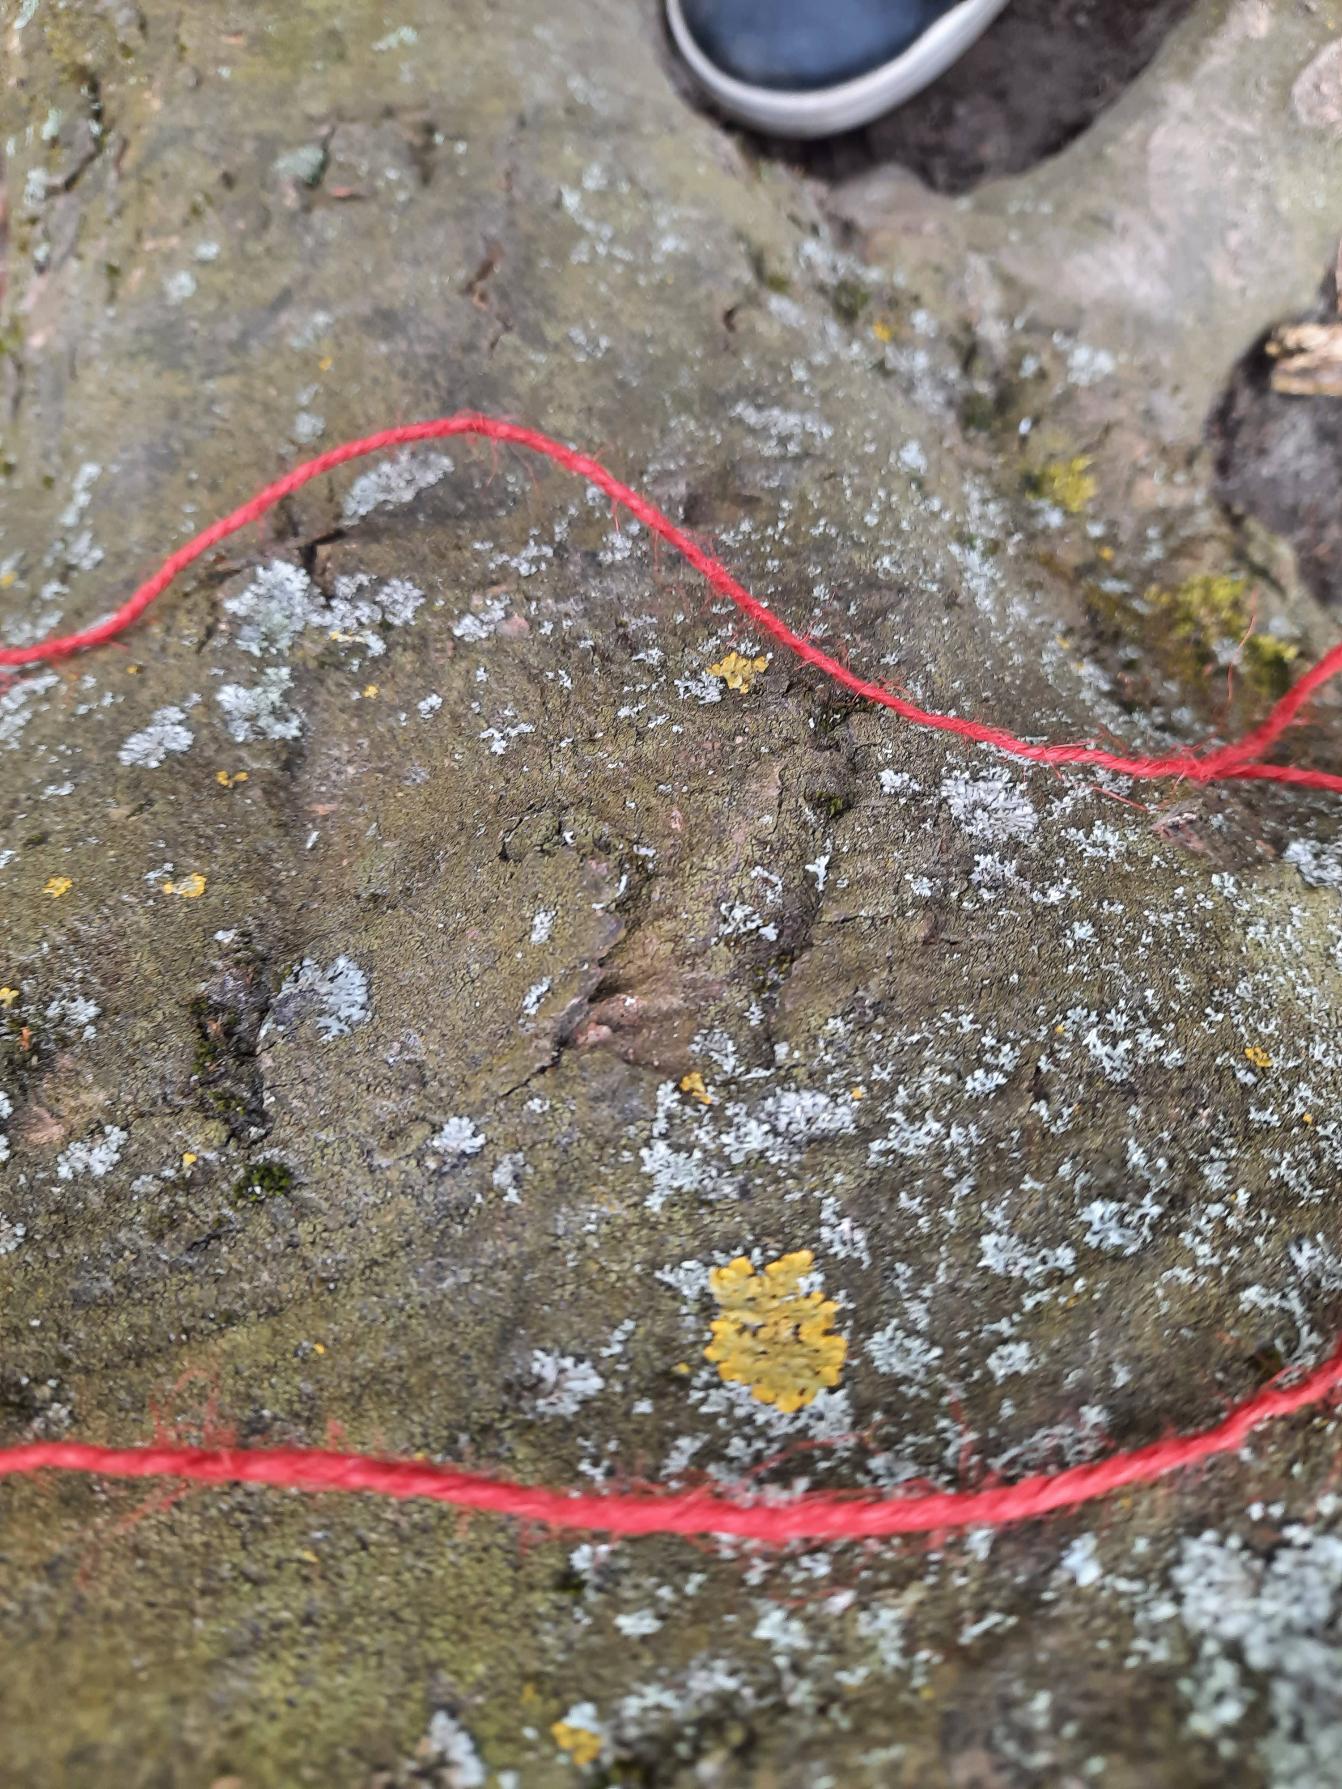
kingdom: Fungi
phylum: Ascomycota
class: Lecanoromycetes
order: Caliciales
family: Physciaceae
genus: Physcia
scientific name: Physcia adscendens
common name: Hætte-rosetlav
